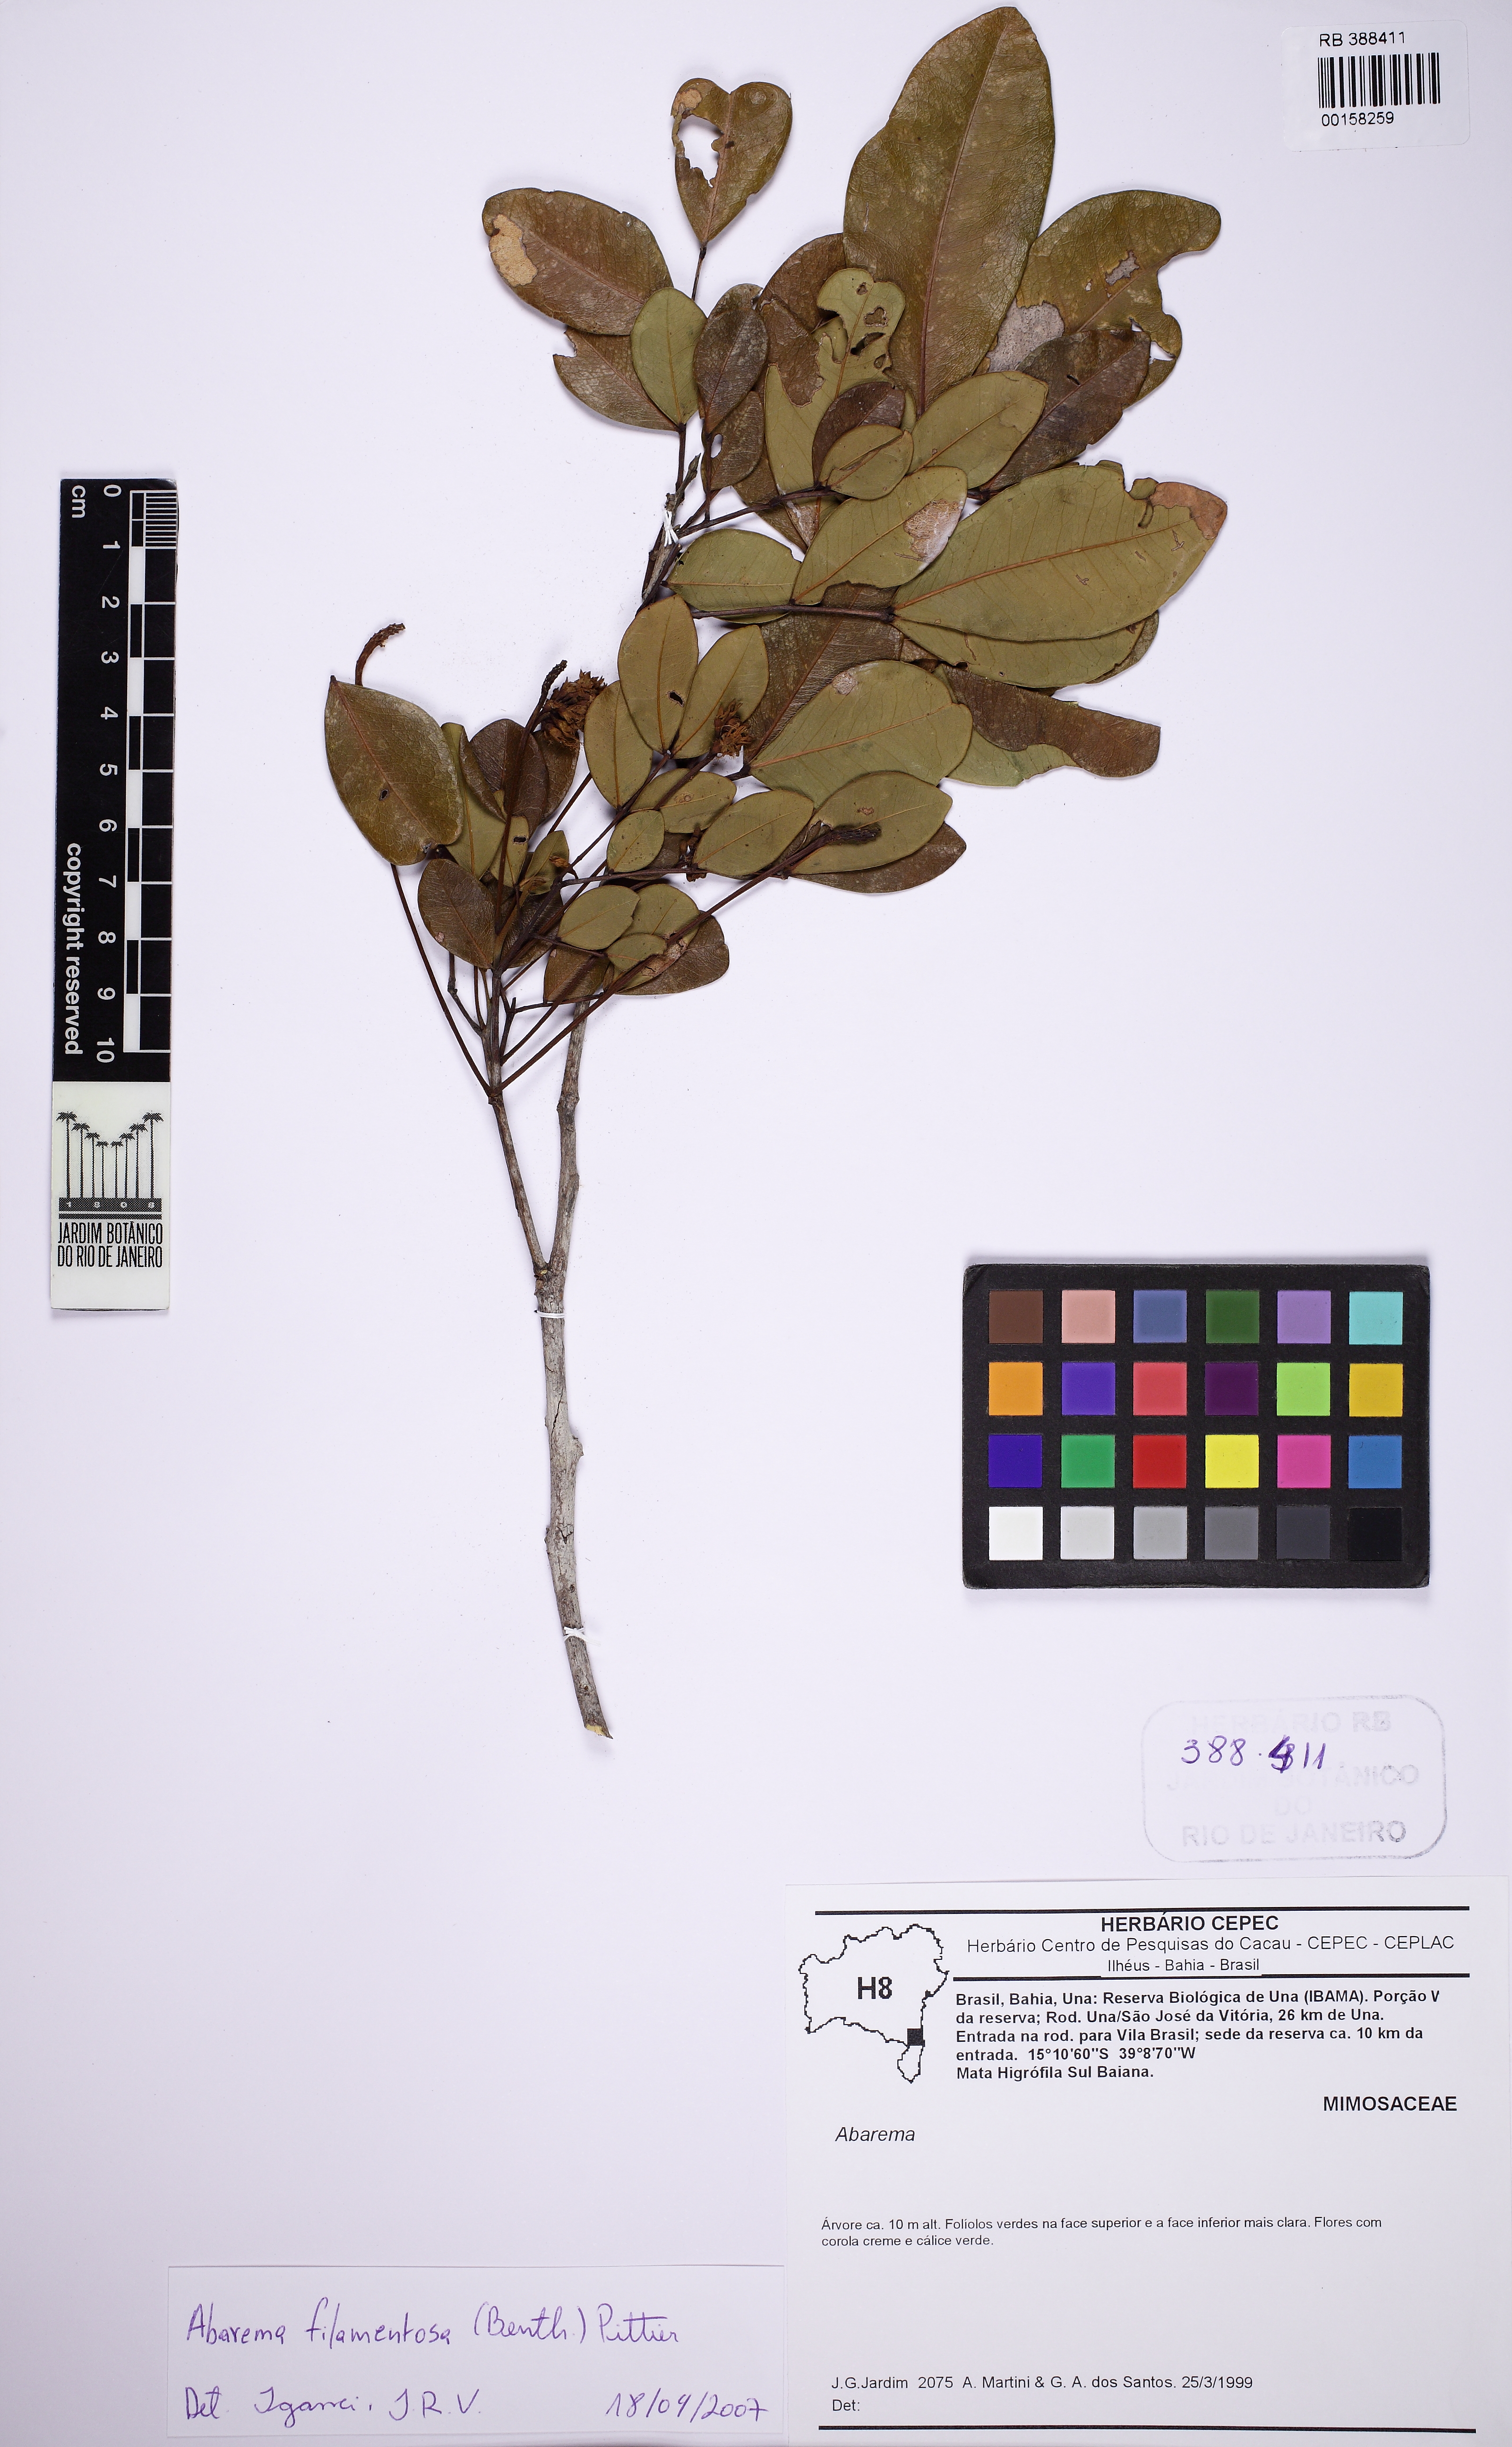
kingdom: Plantae
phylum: Tracheophyta
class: Magnoliopsida
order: Fabales
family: Fabaceae
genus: Jupunba
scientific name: Jupunba filamentosa
